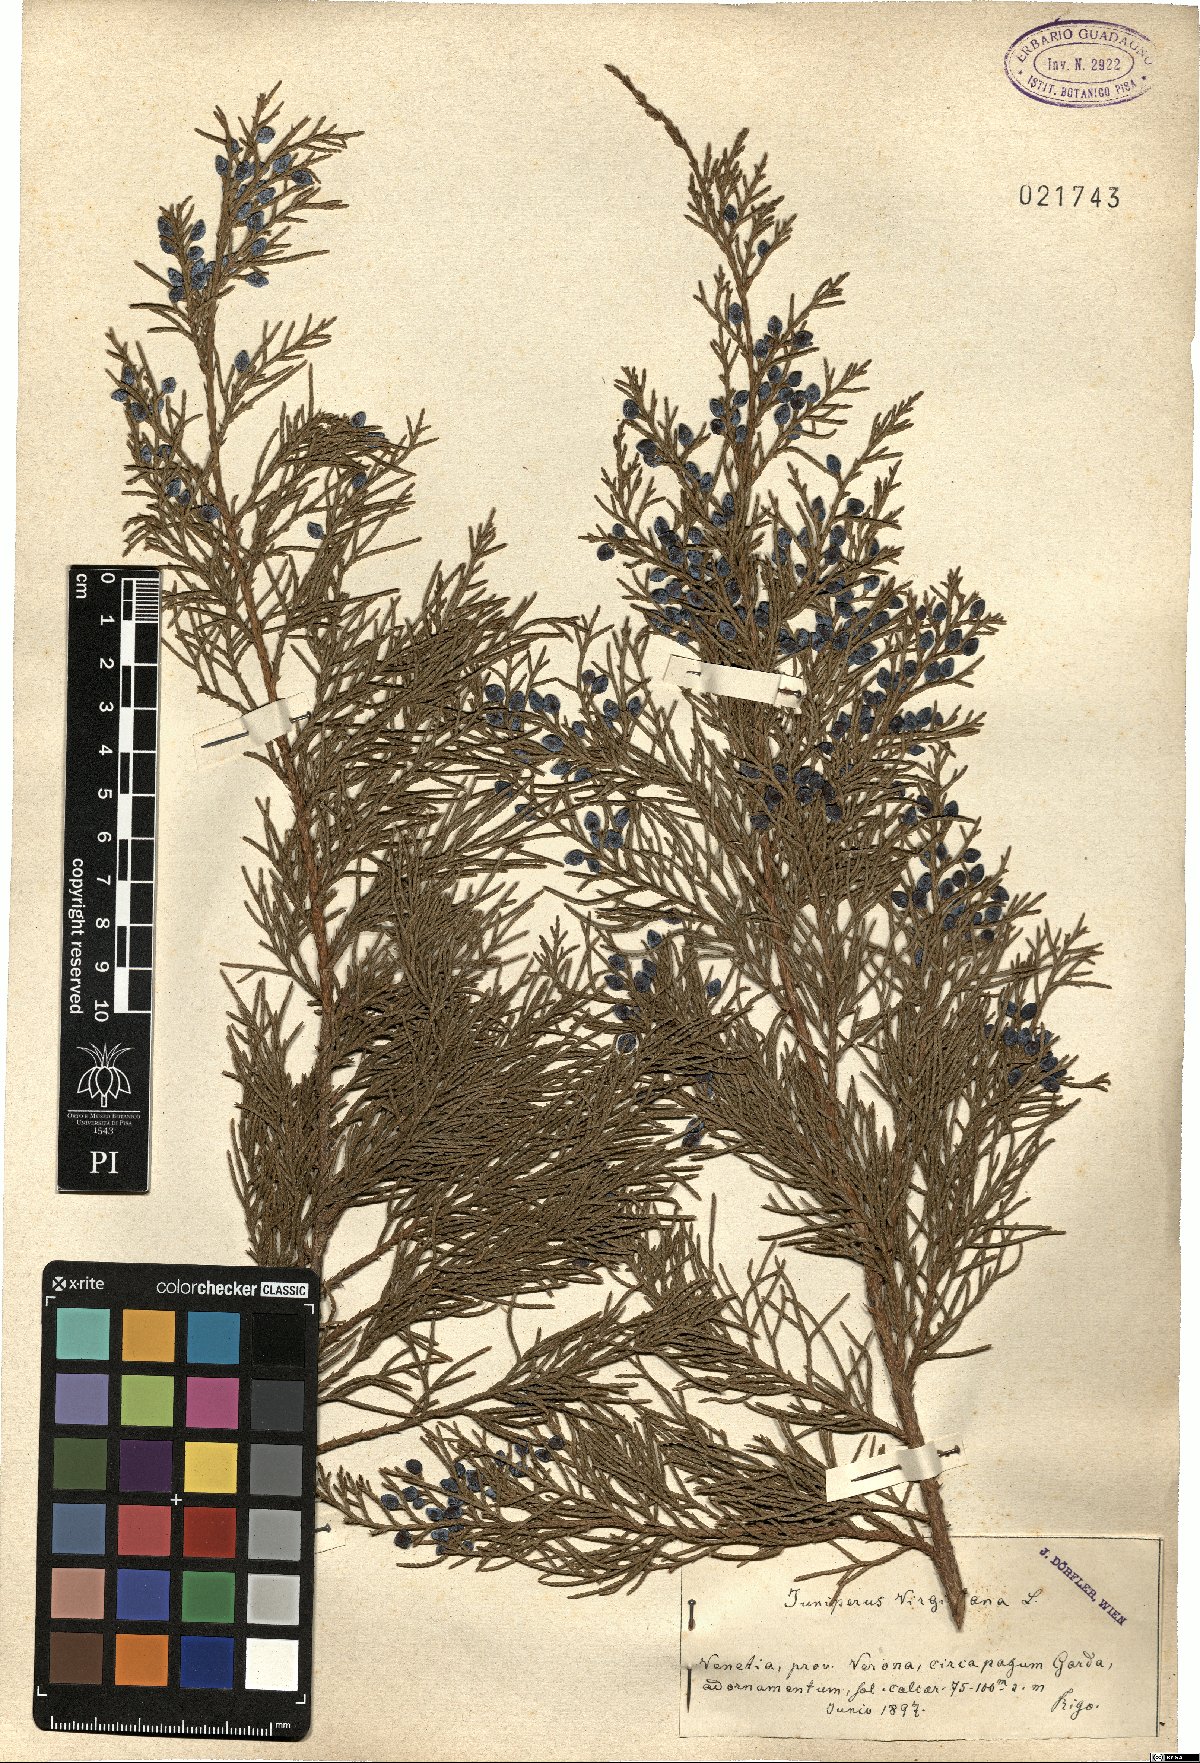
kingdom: Plantae
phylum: Tracheophyta
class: Pinopsida
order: Pinales
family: Cupressaceae
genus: Juniperus
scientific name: Juniperus virginiana
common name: Red juniper
